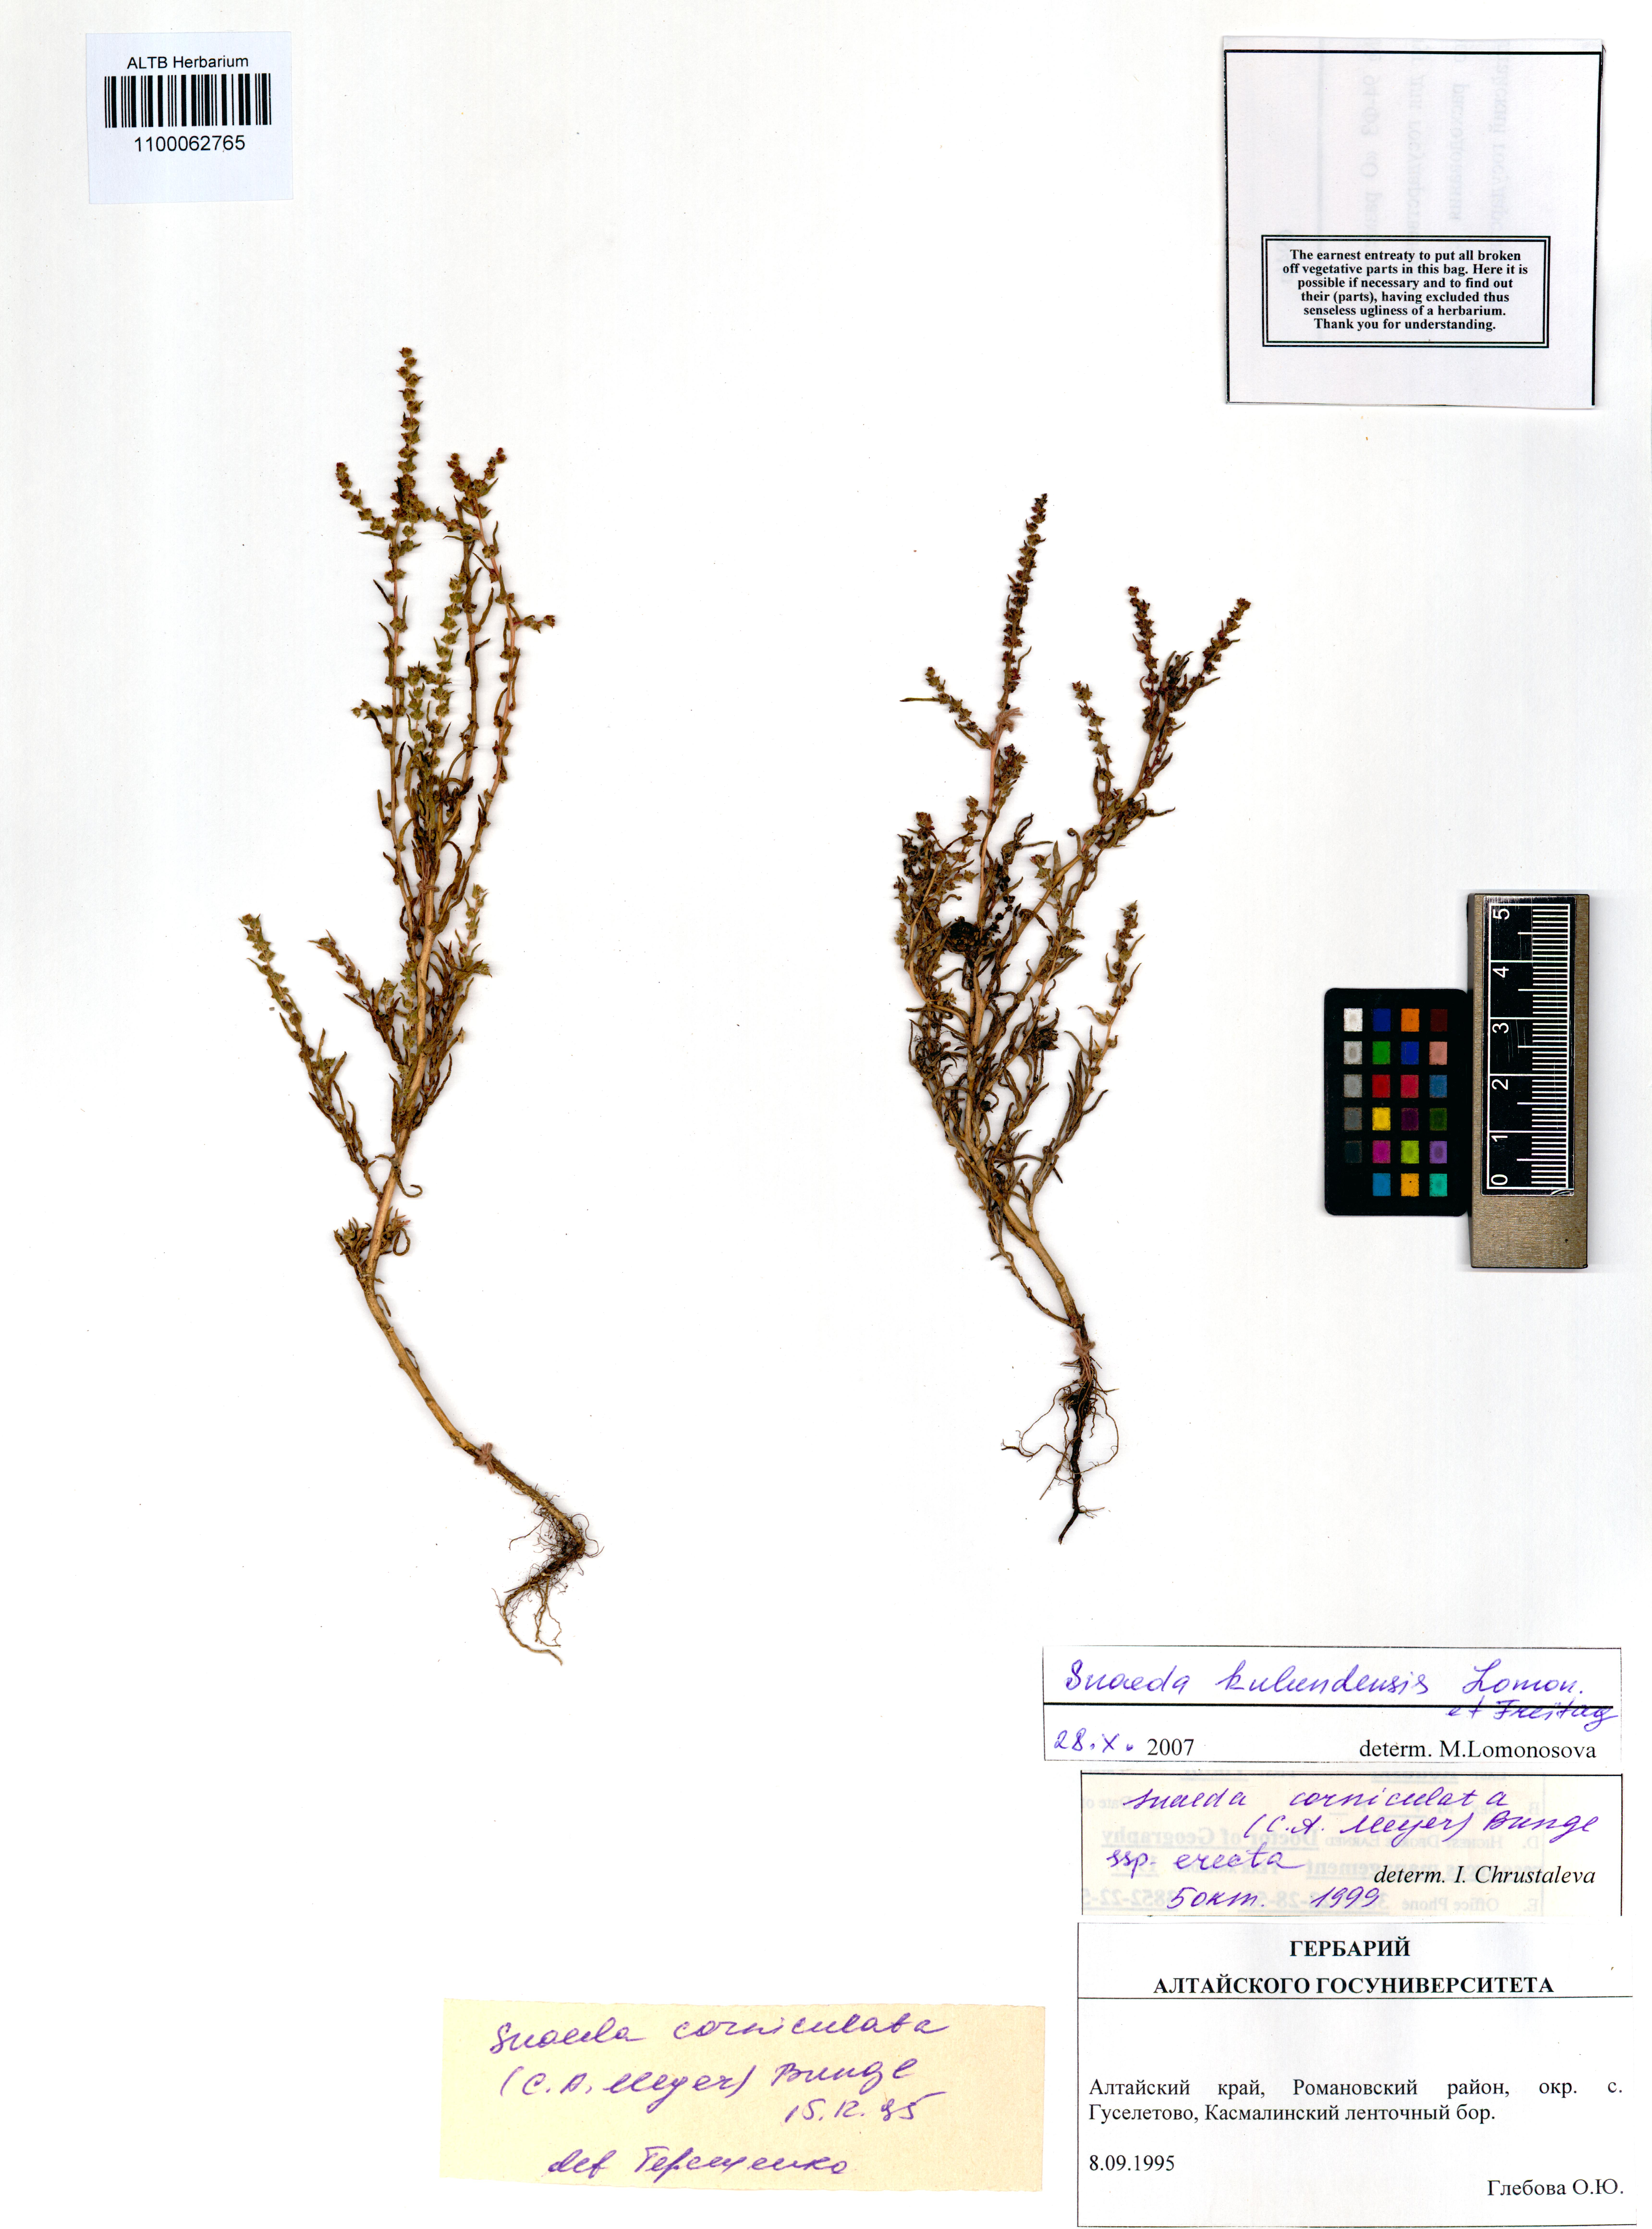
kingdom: Plantae
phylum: Tracheophyta
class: Magnoliopsida
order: Caryophyllales
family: Amaranthaceae
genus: Suaeda
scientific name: Suaeda kulundensis
